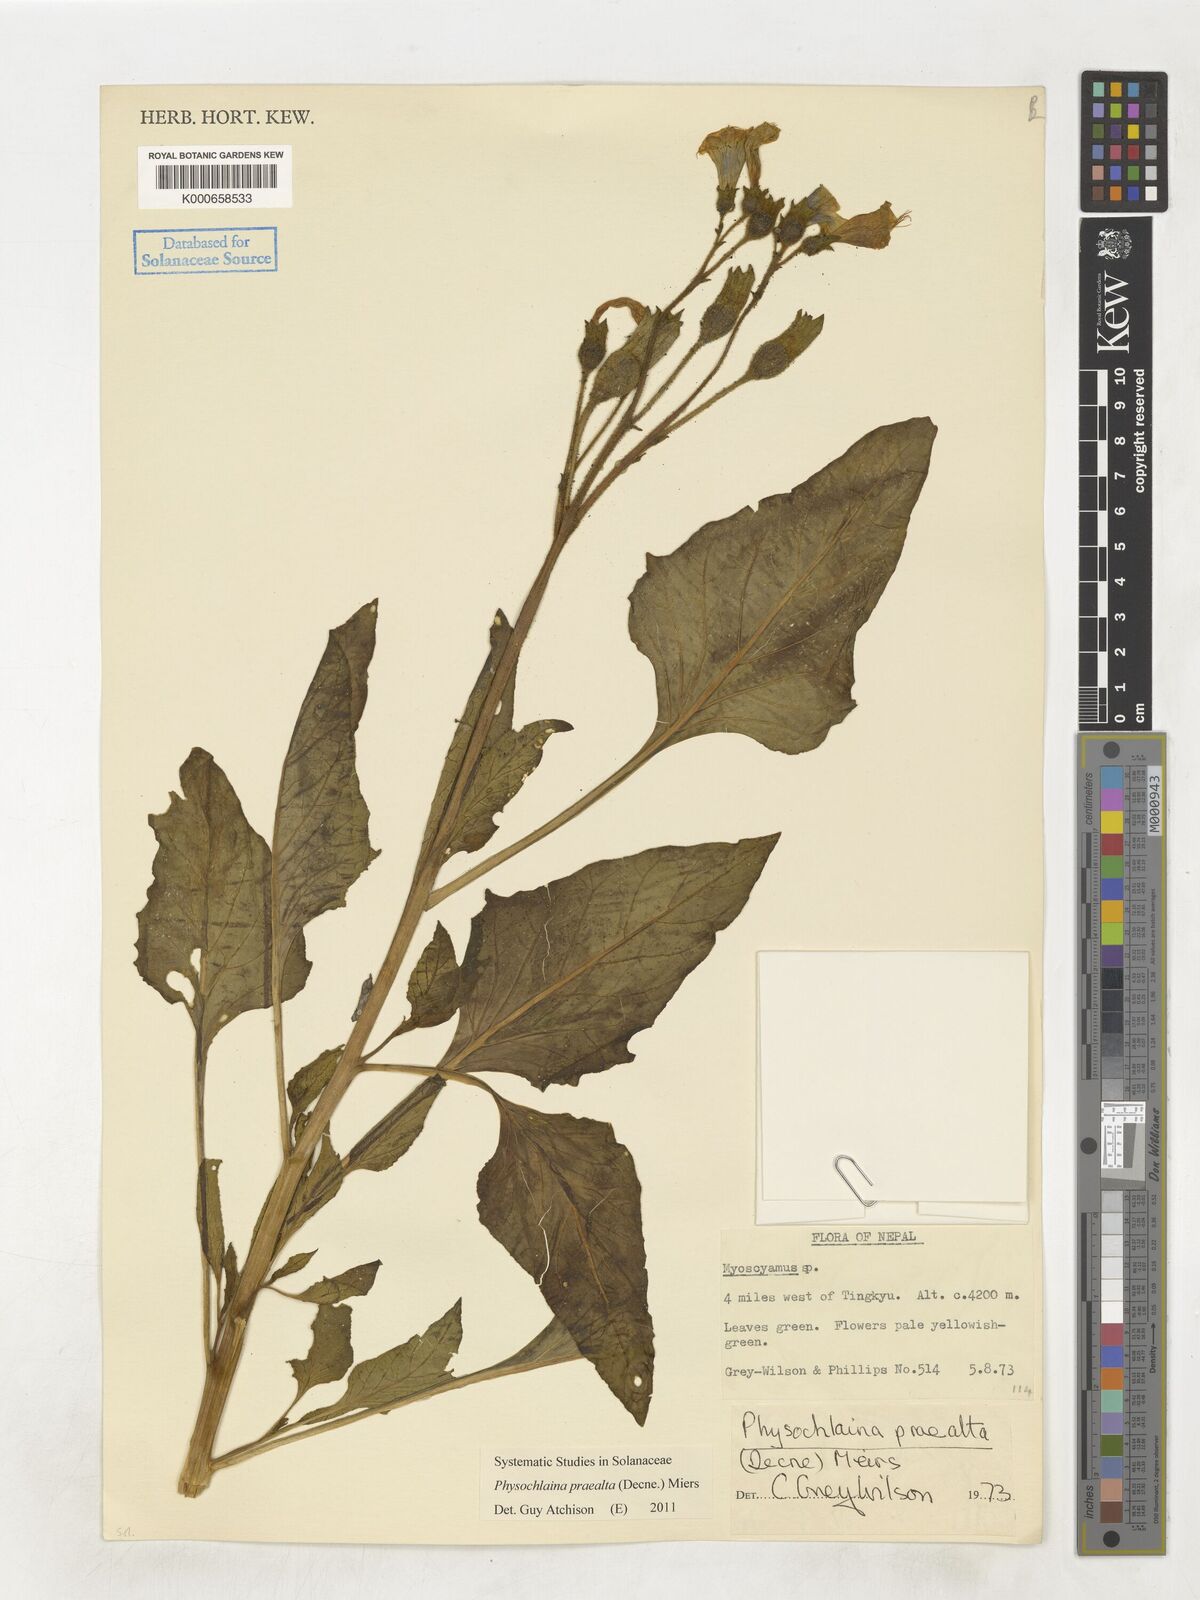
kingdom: Plantae
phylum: Tracheophyta
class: Magnoliopsida
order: Solanales
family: Solanaceae
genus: Physochlaina
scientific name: Physochlaina praealta
